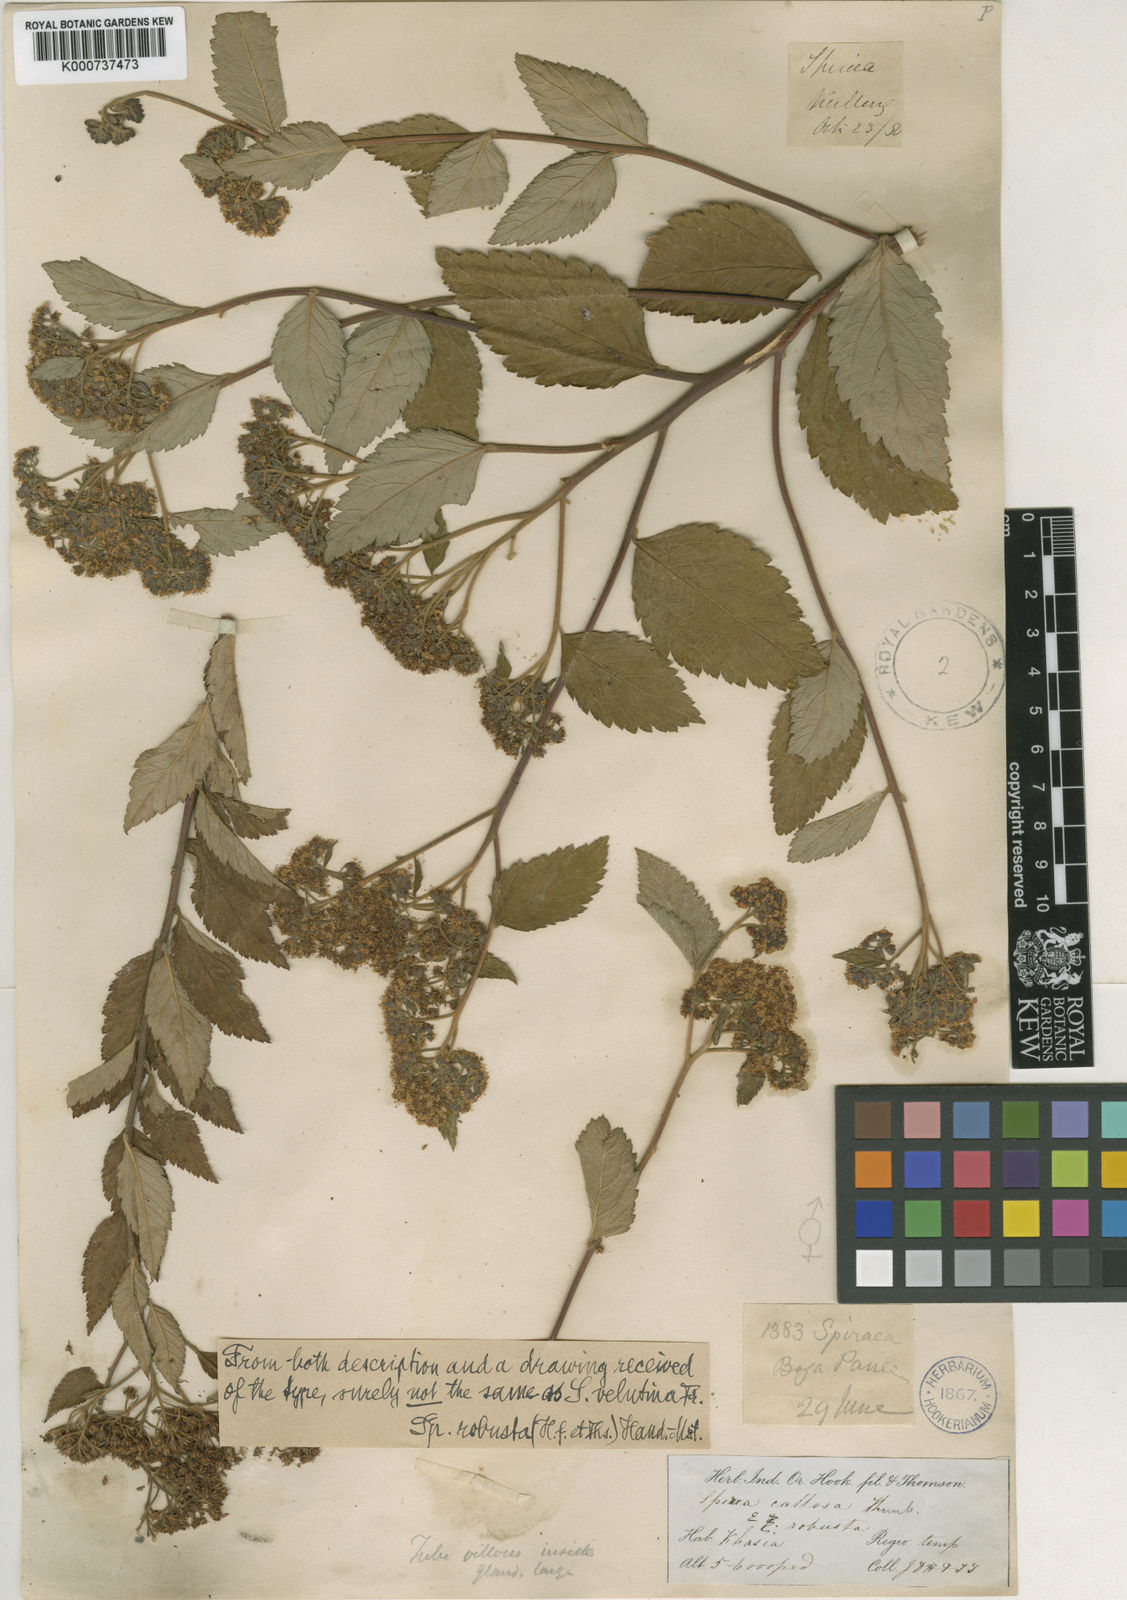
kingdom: Plantae
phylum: Tracheophyta
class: Magnoliopsida
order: Rosales
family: Rosaceae
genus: Spiraea
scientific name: Spiraea japonica
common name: Japanese spiraea
